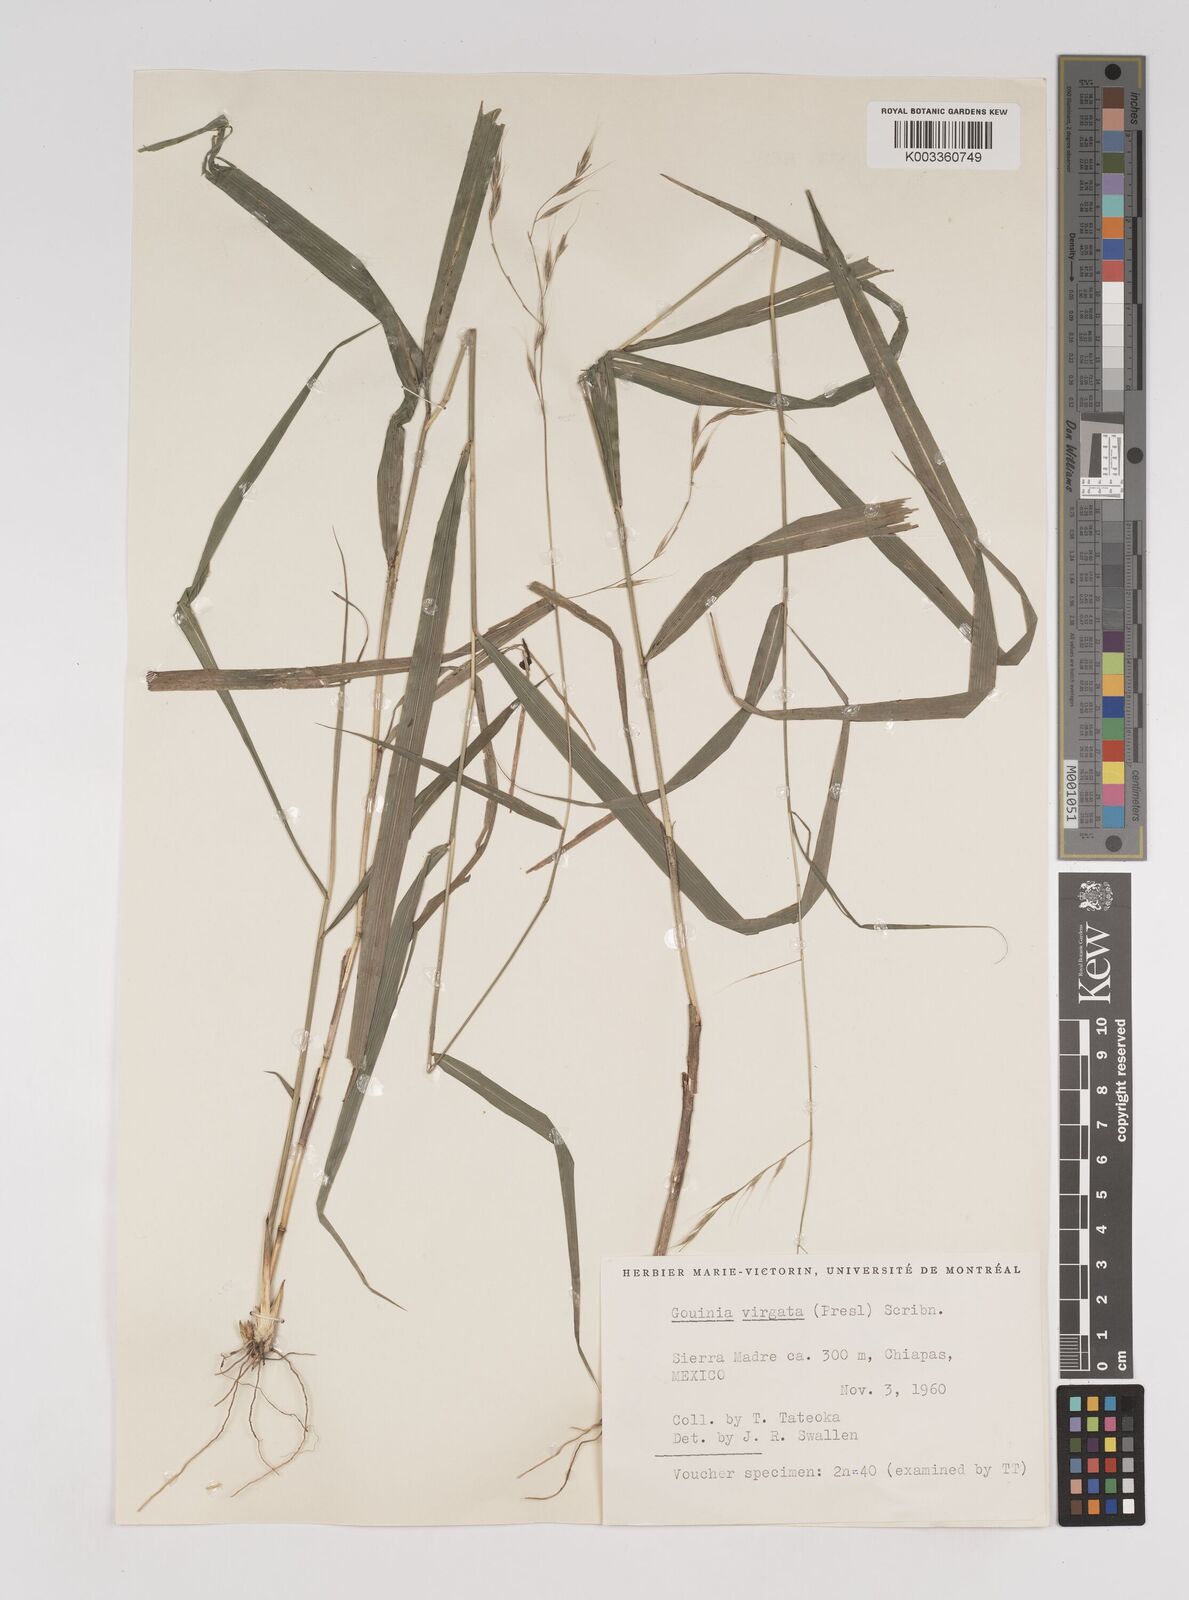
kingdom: Plantae
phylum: Tracheophyta
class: Liliopsida
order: Poales
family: Poaceae
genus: Gouinia
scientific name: Gouinia virgata
